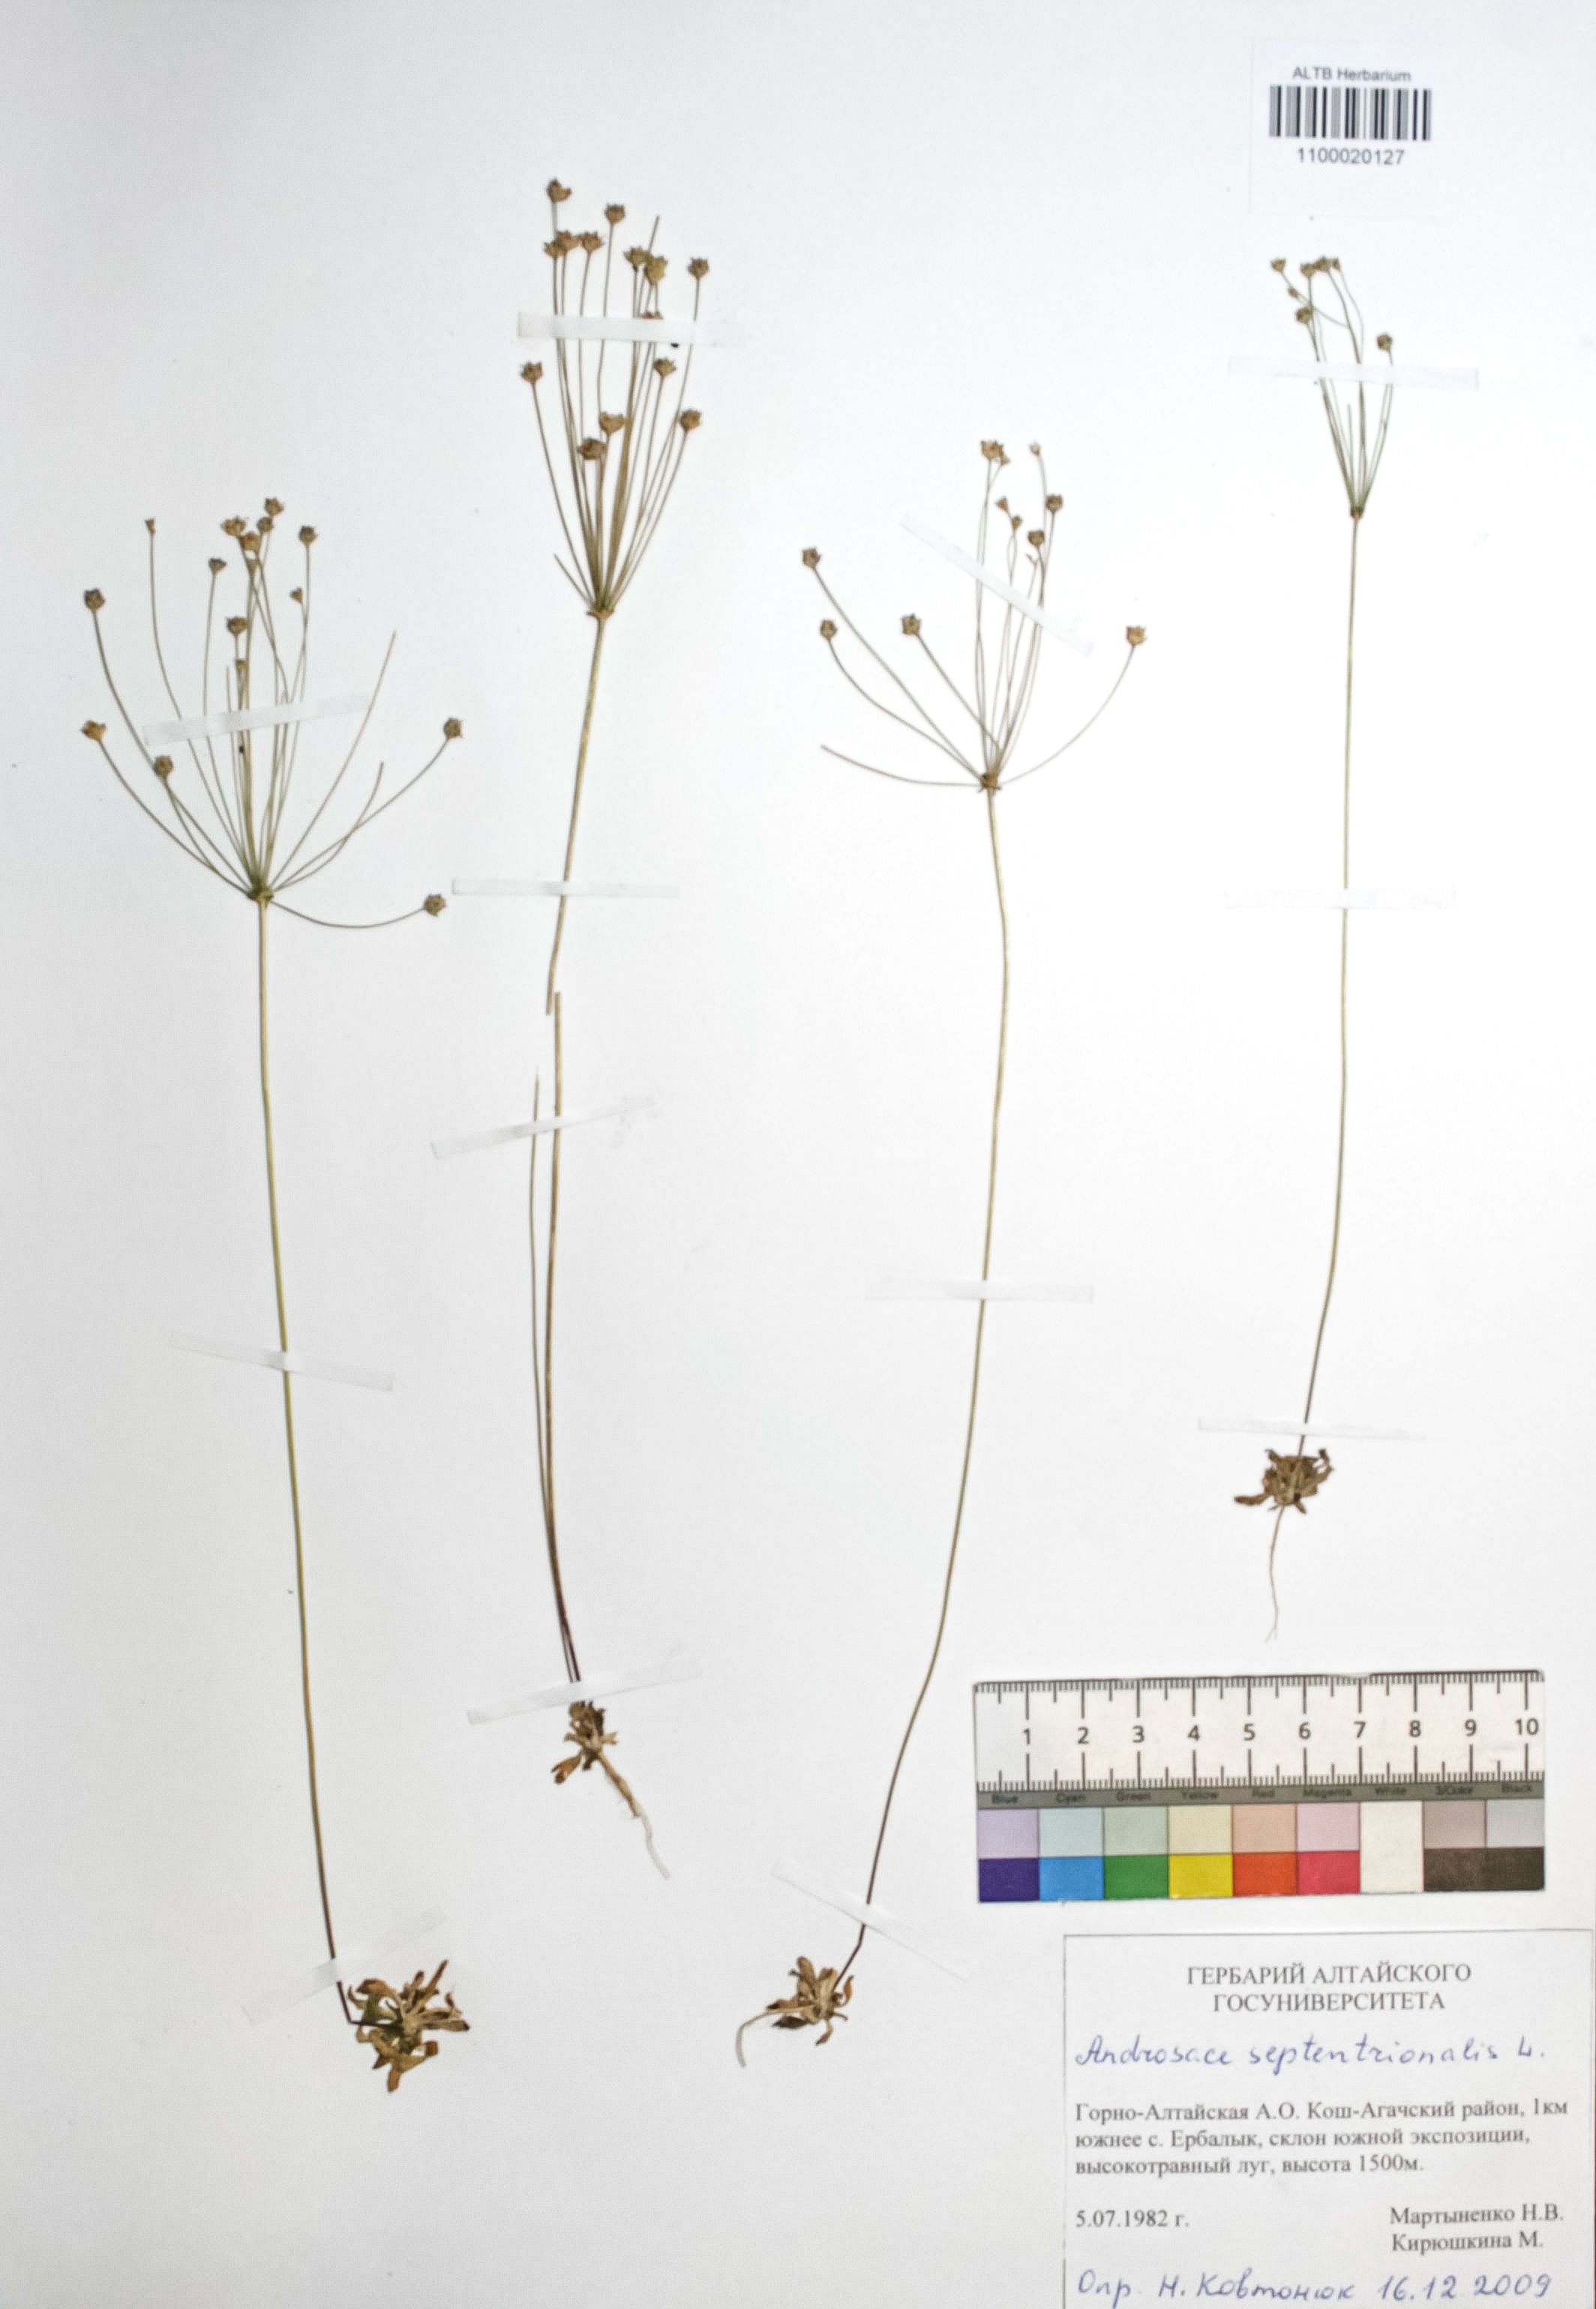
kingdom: Plantae
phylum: Tracheophyta
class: Magnoliopsida
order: Ericales
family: Primulaceae
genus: Androsace
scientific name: Androsace septentrionalis
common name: Hairy northern fairy-candelabra
